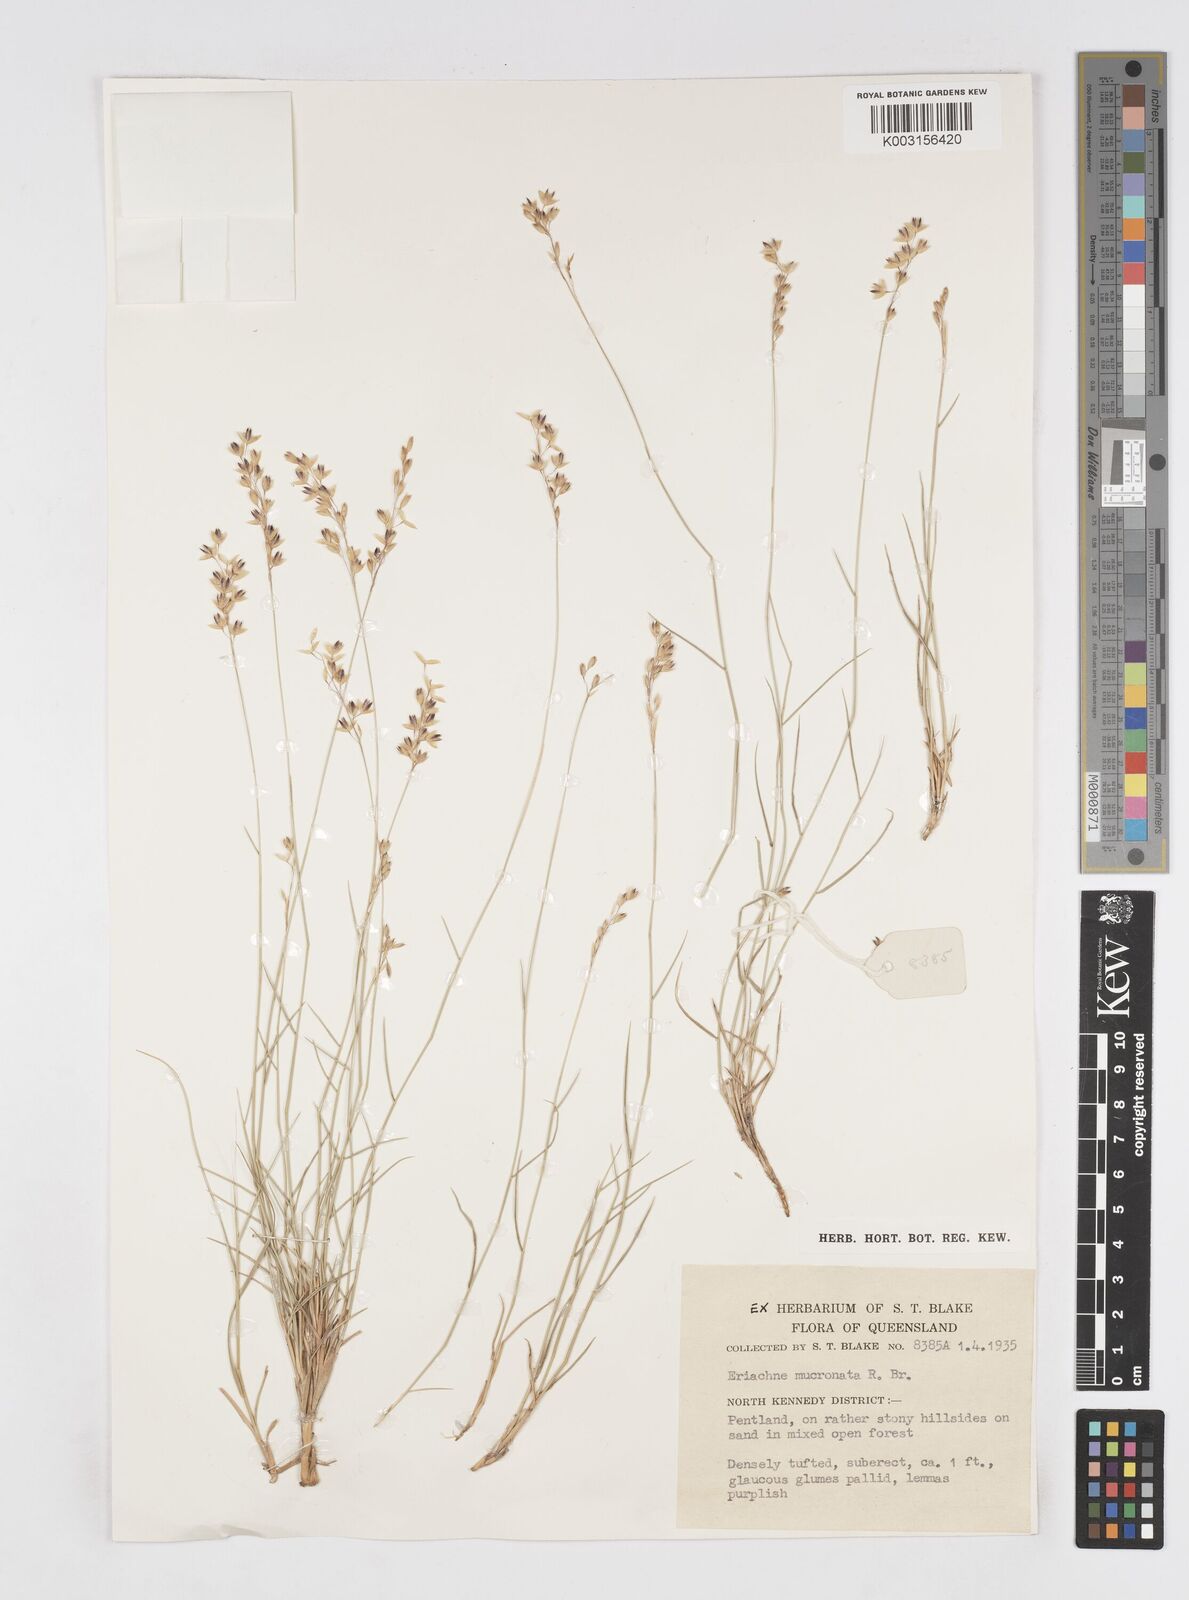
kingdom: Plantae
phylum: Tracheophyta
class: Liliopsida
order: Poales
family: Poaceae
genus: Eriachne
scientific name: Eriachne mucronata
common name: Mountain wanderrie grass
